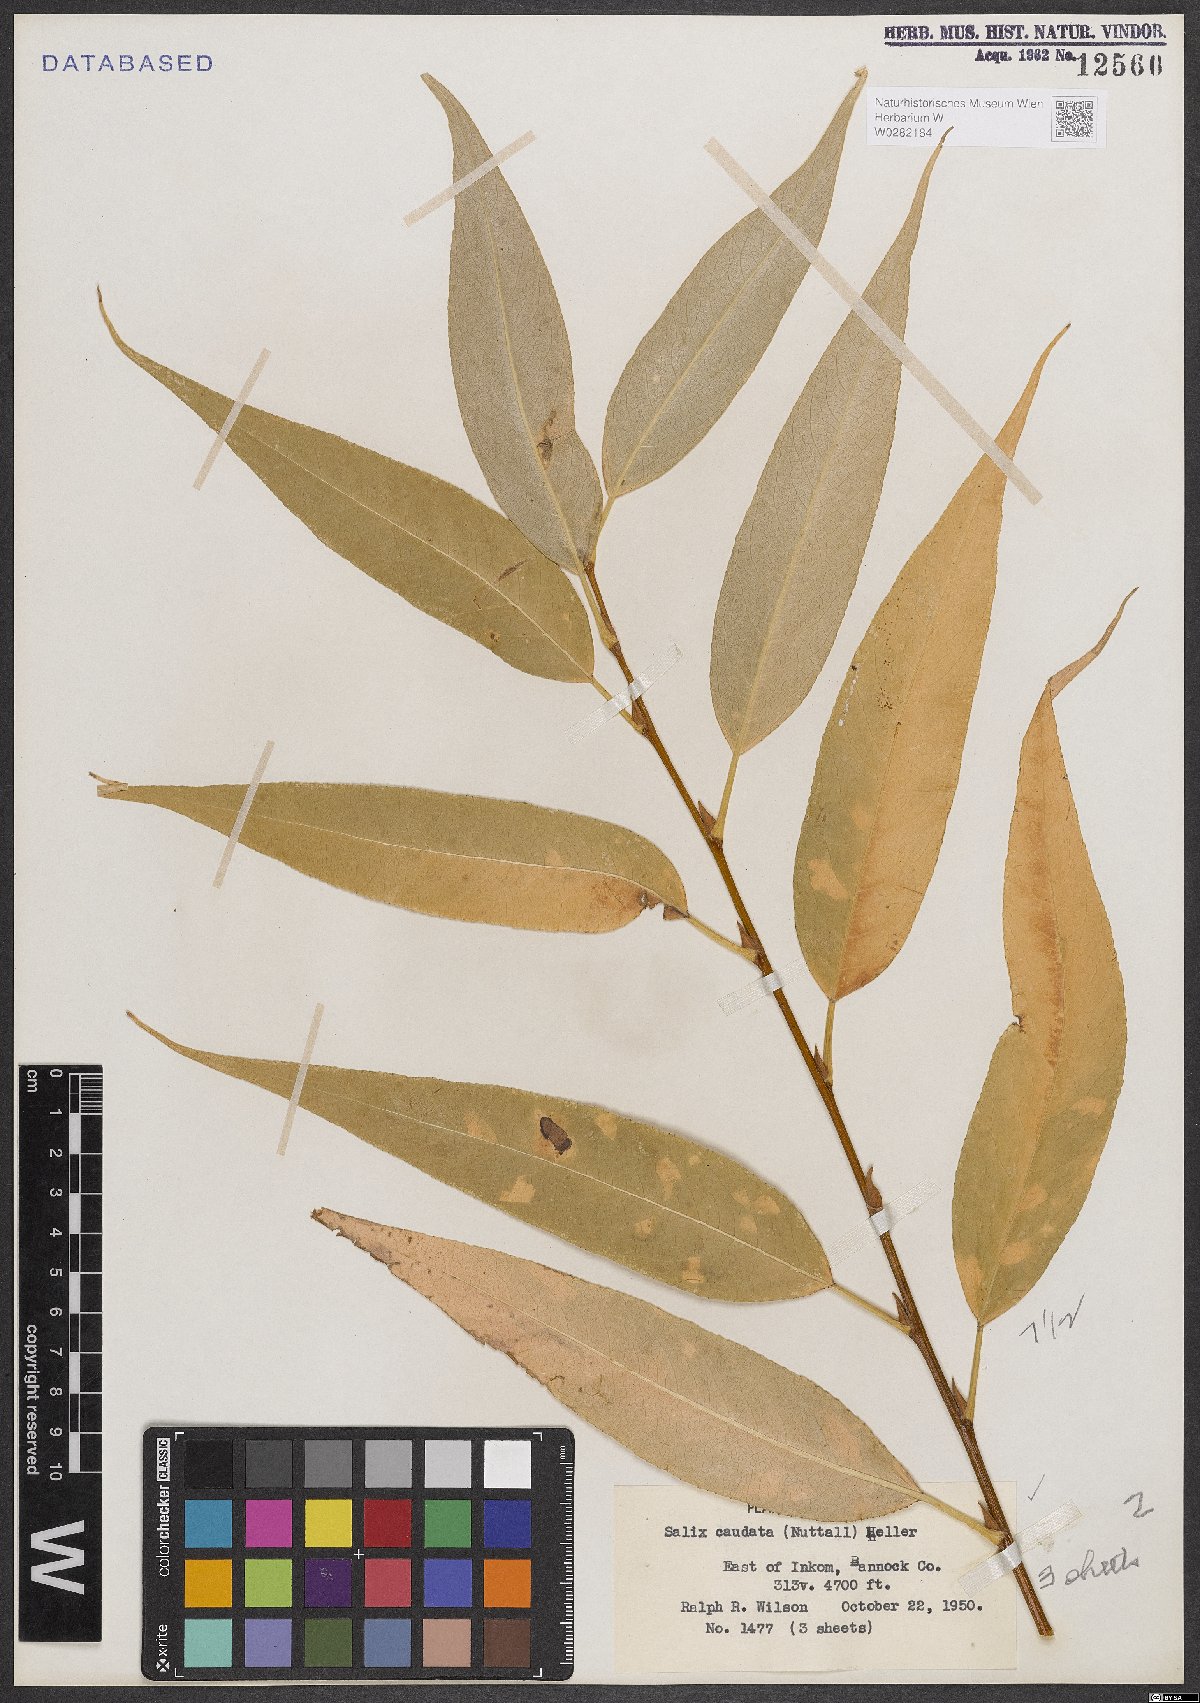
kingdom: Plantae
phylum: Tracheophyta
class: Magnoliopsida
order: Malpighiales
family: Salicaceae
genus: Salix
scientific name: Salix lucida
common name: Shining willow
